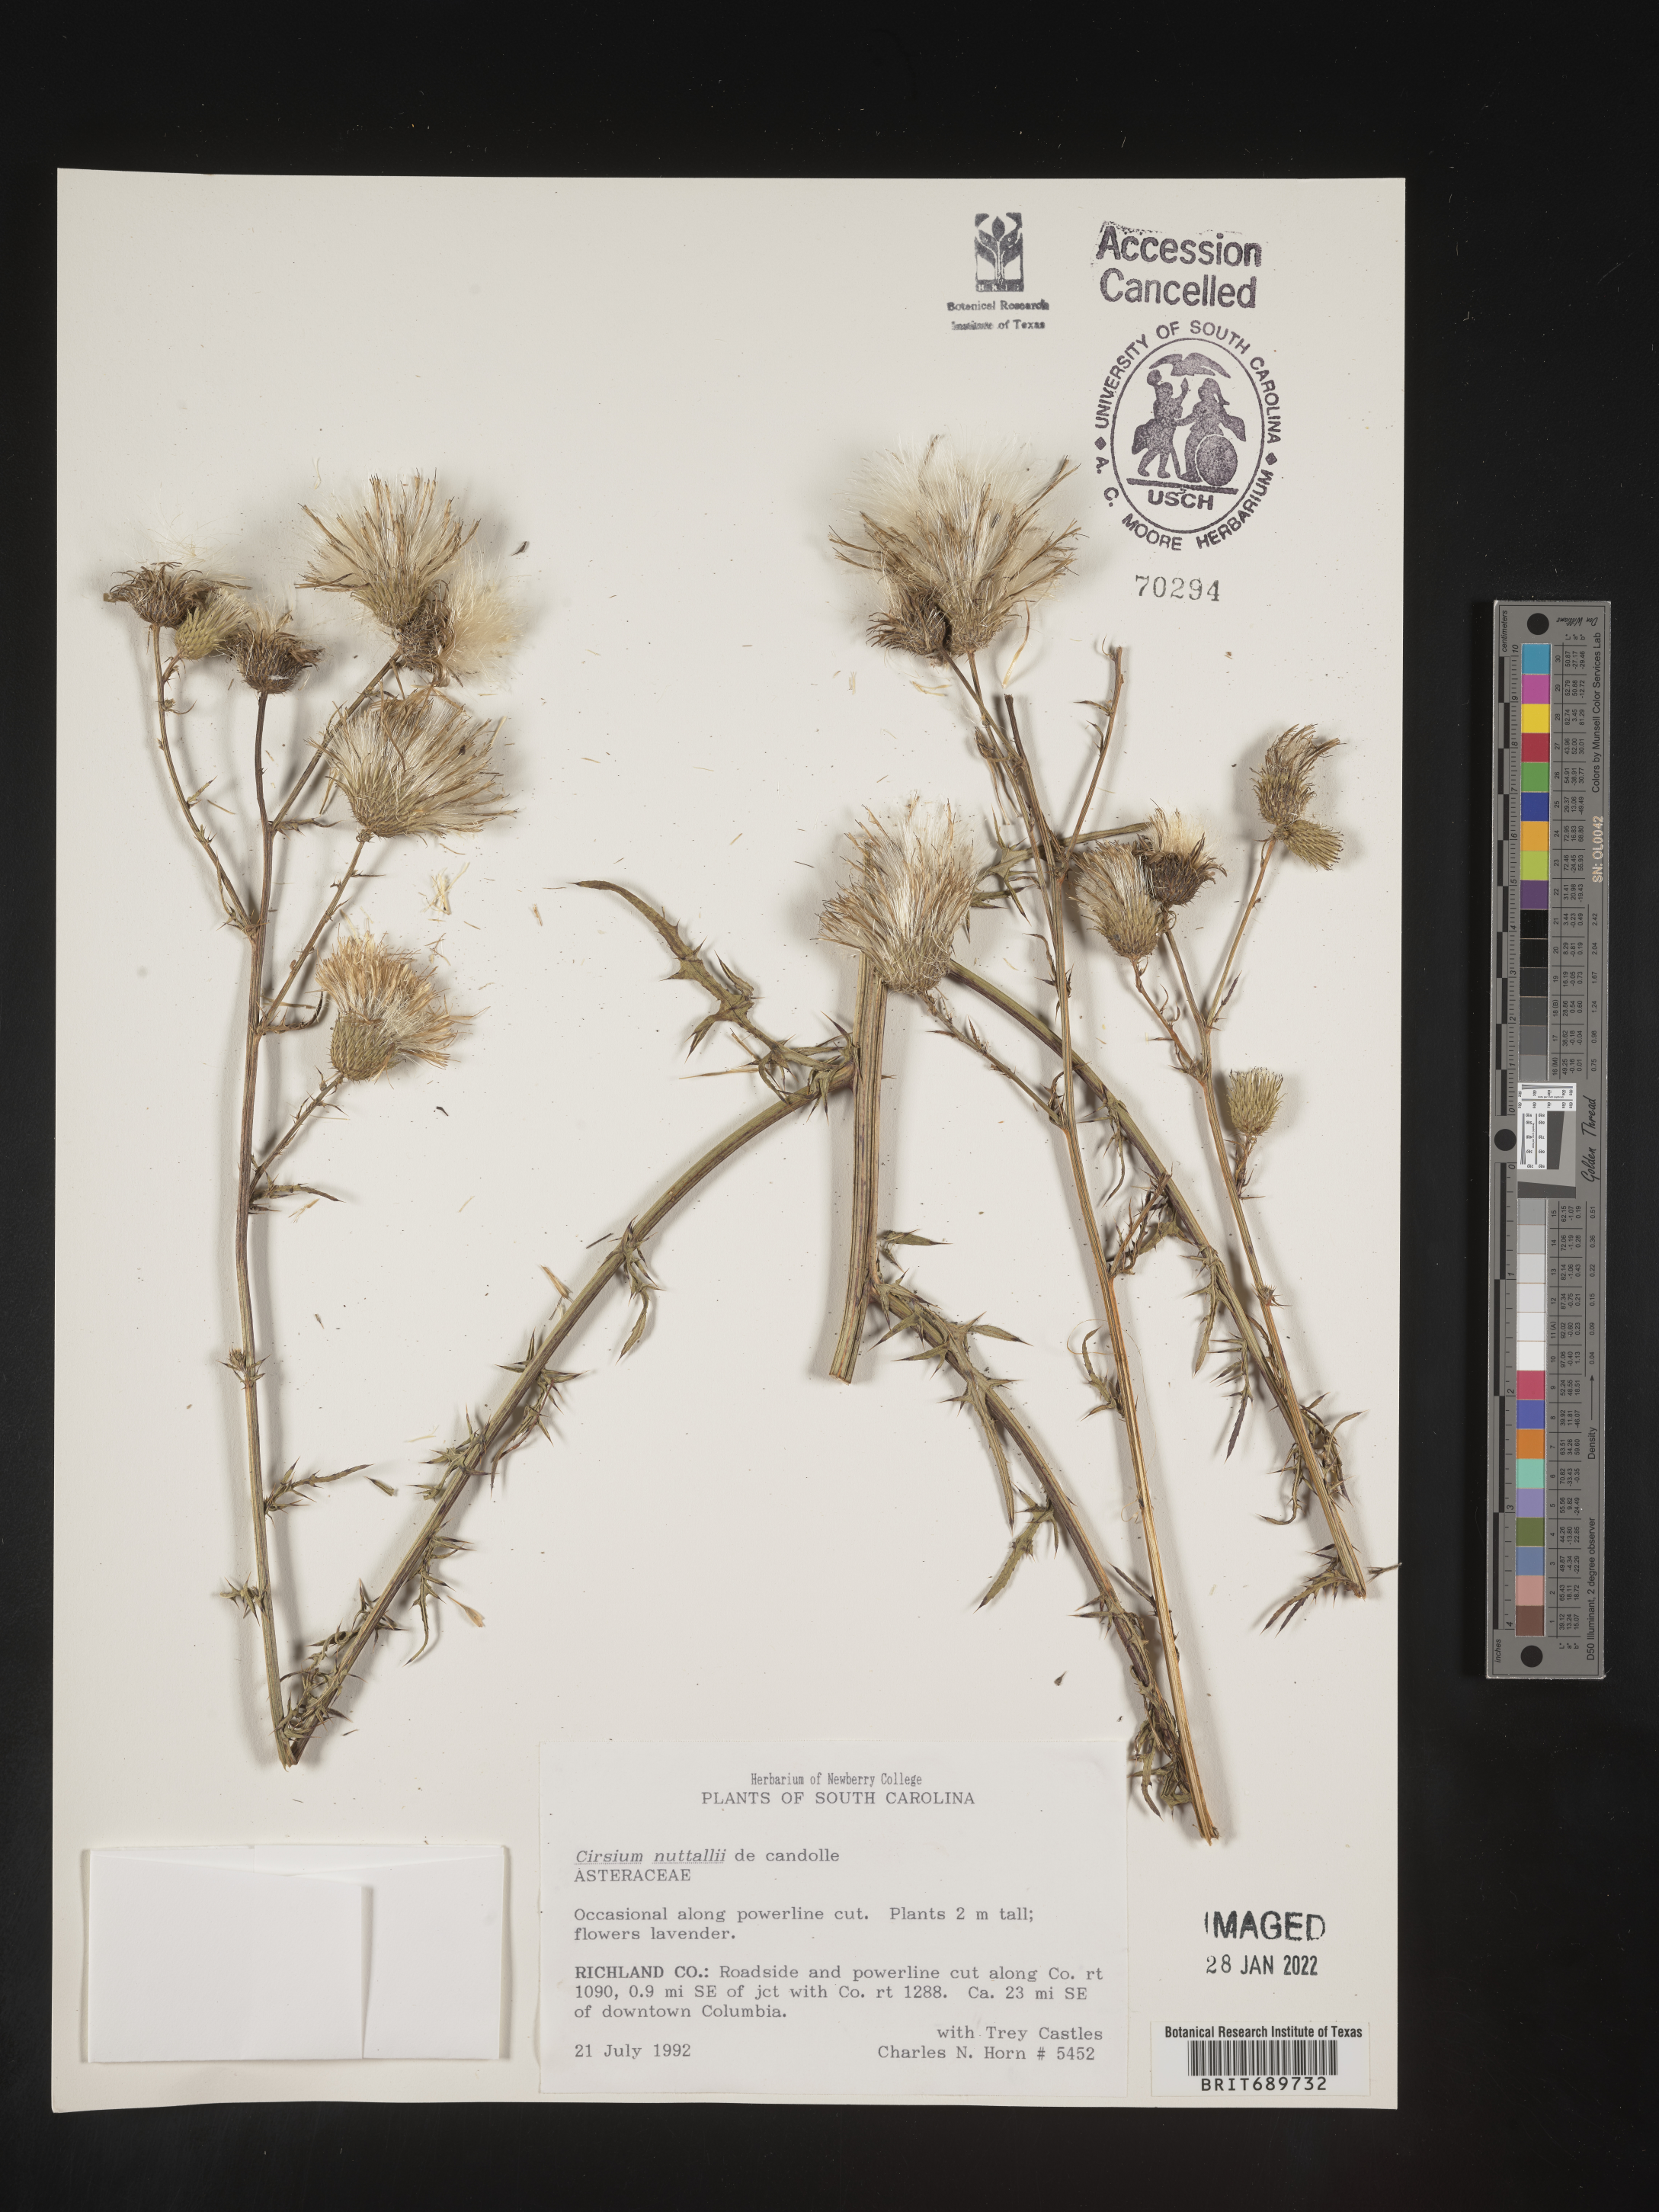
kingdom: Plantae
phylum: Tracheophyta
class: Magnoliopsida
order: Asterales
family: Asteraceae
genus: Cirsium
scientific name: Cirsium
